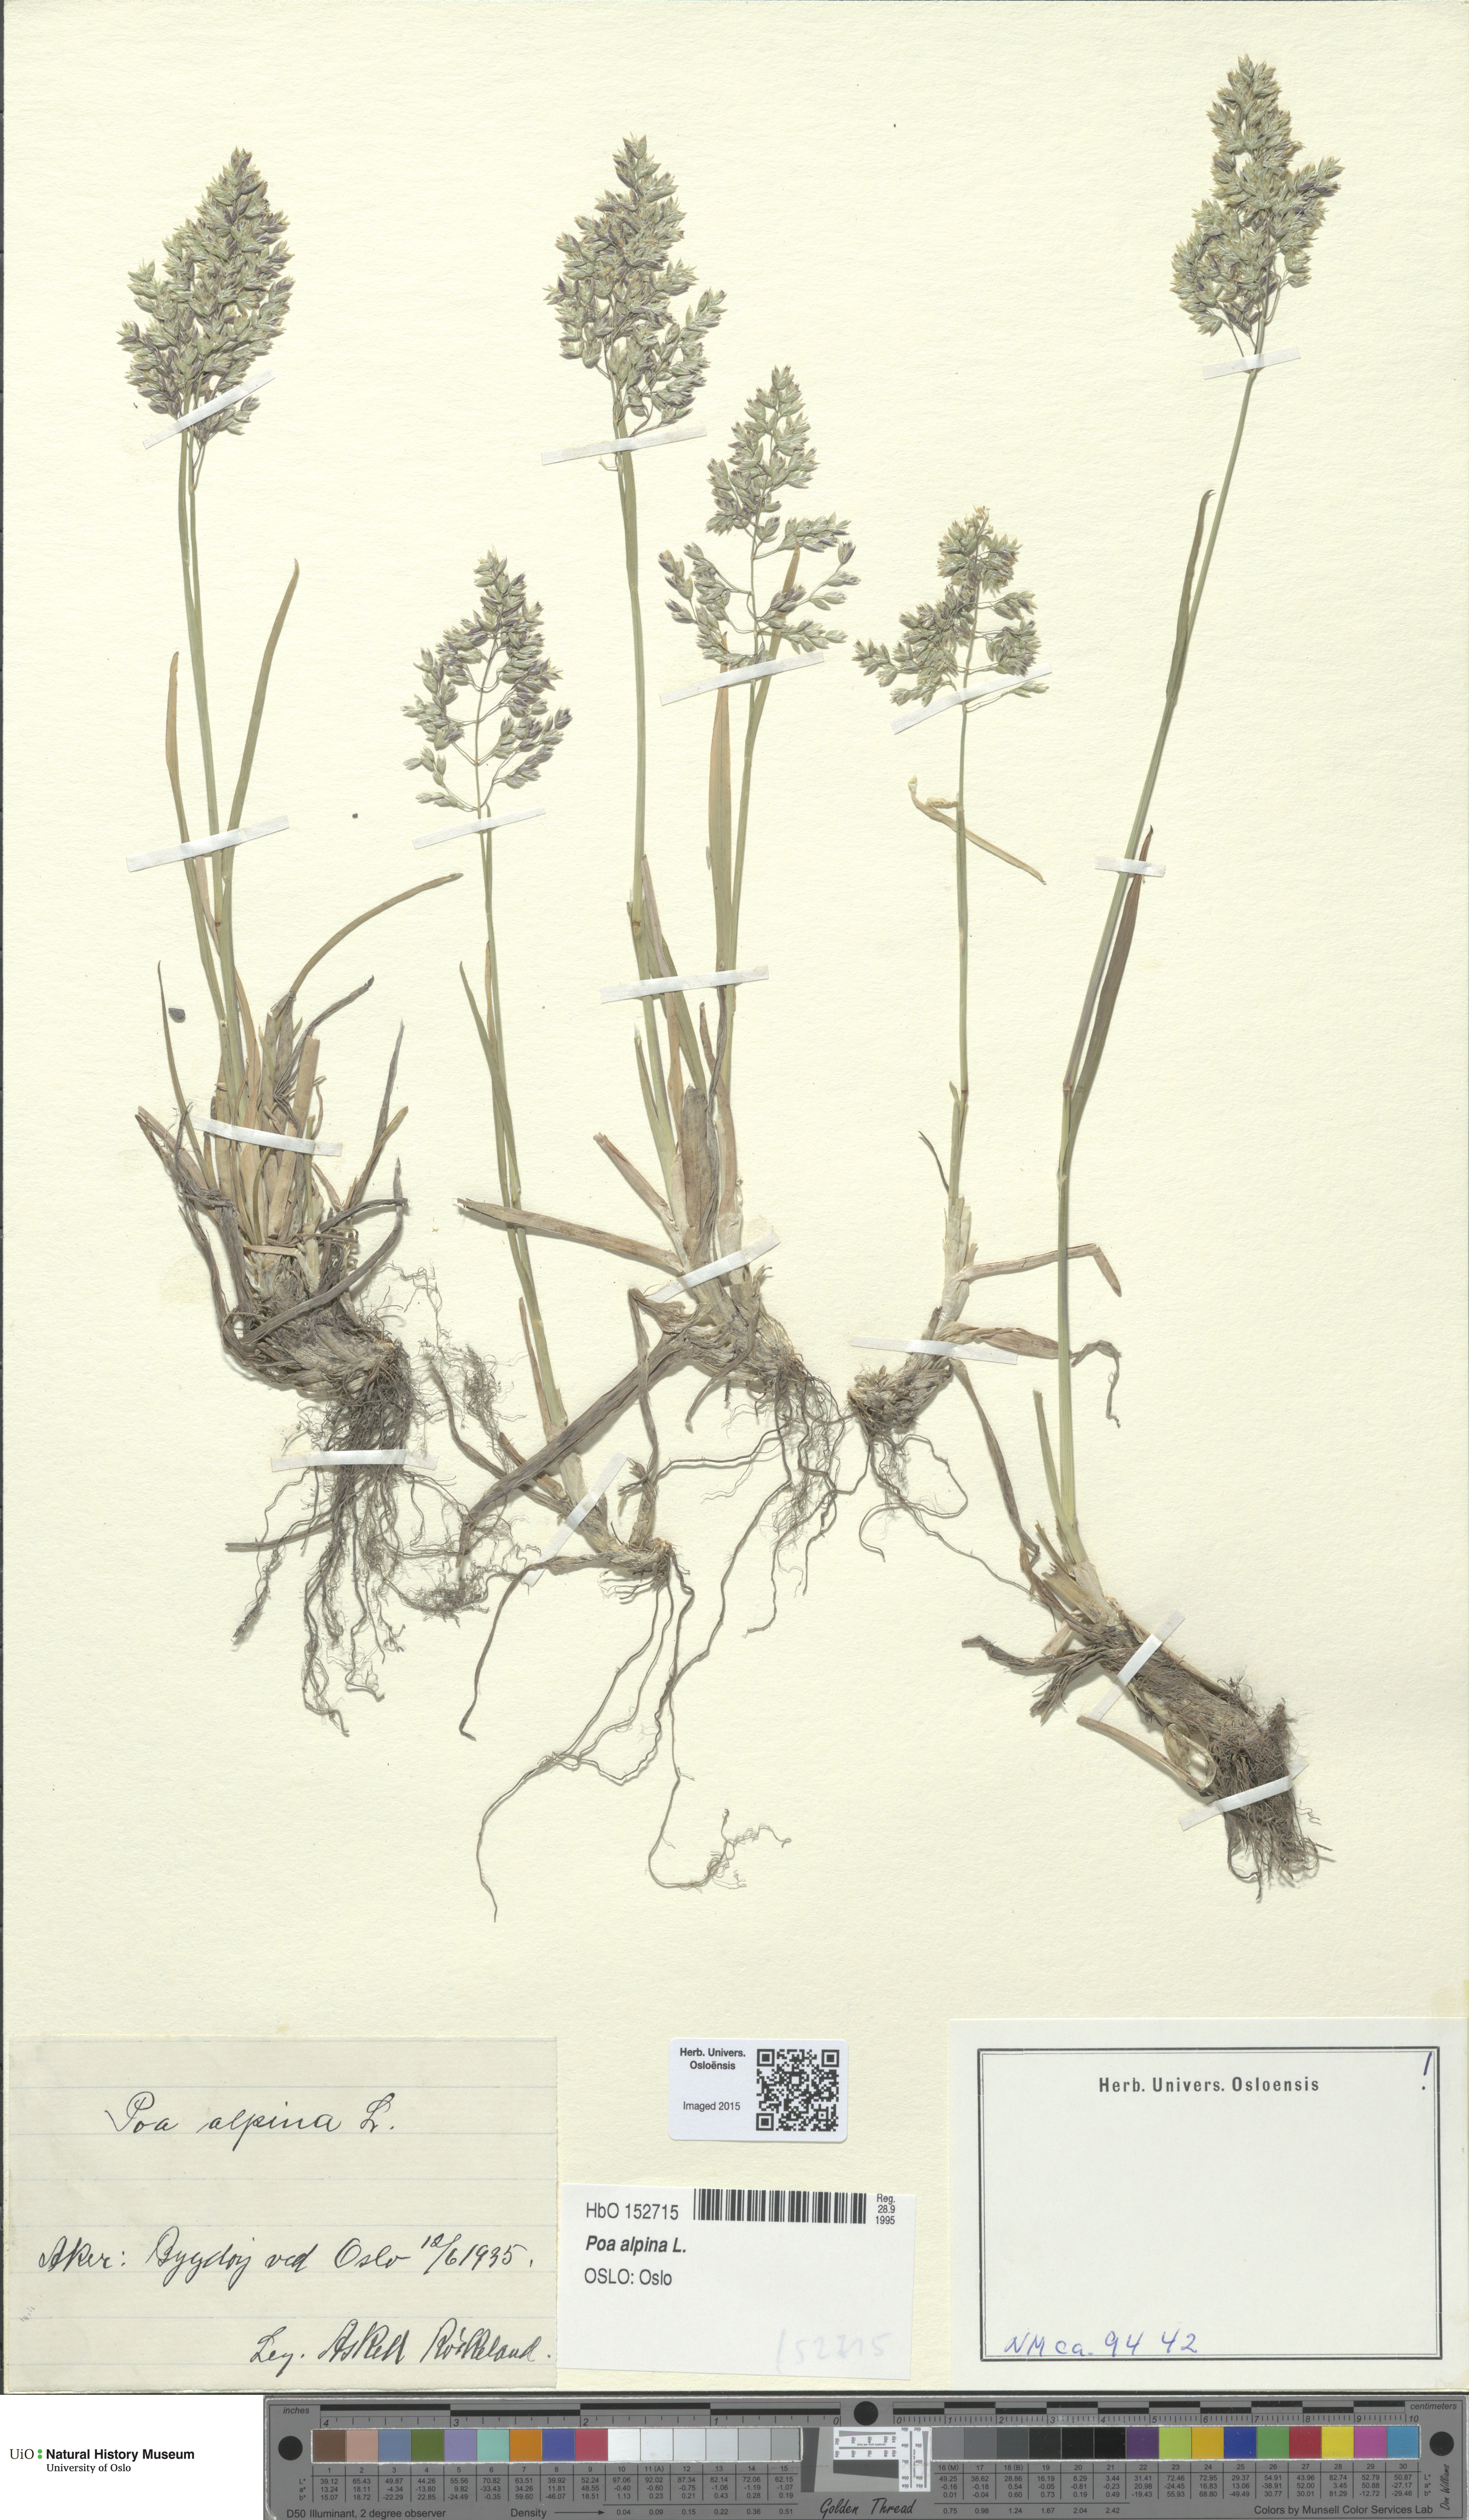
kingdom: Plantae
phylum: Tracheophyta
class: Liliopsida
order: Poales
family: Poaceae
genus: Poa
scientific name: Poa alpina
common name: Alpine bluegrass
